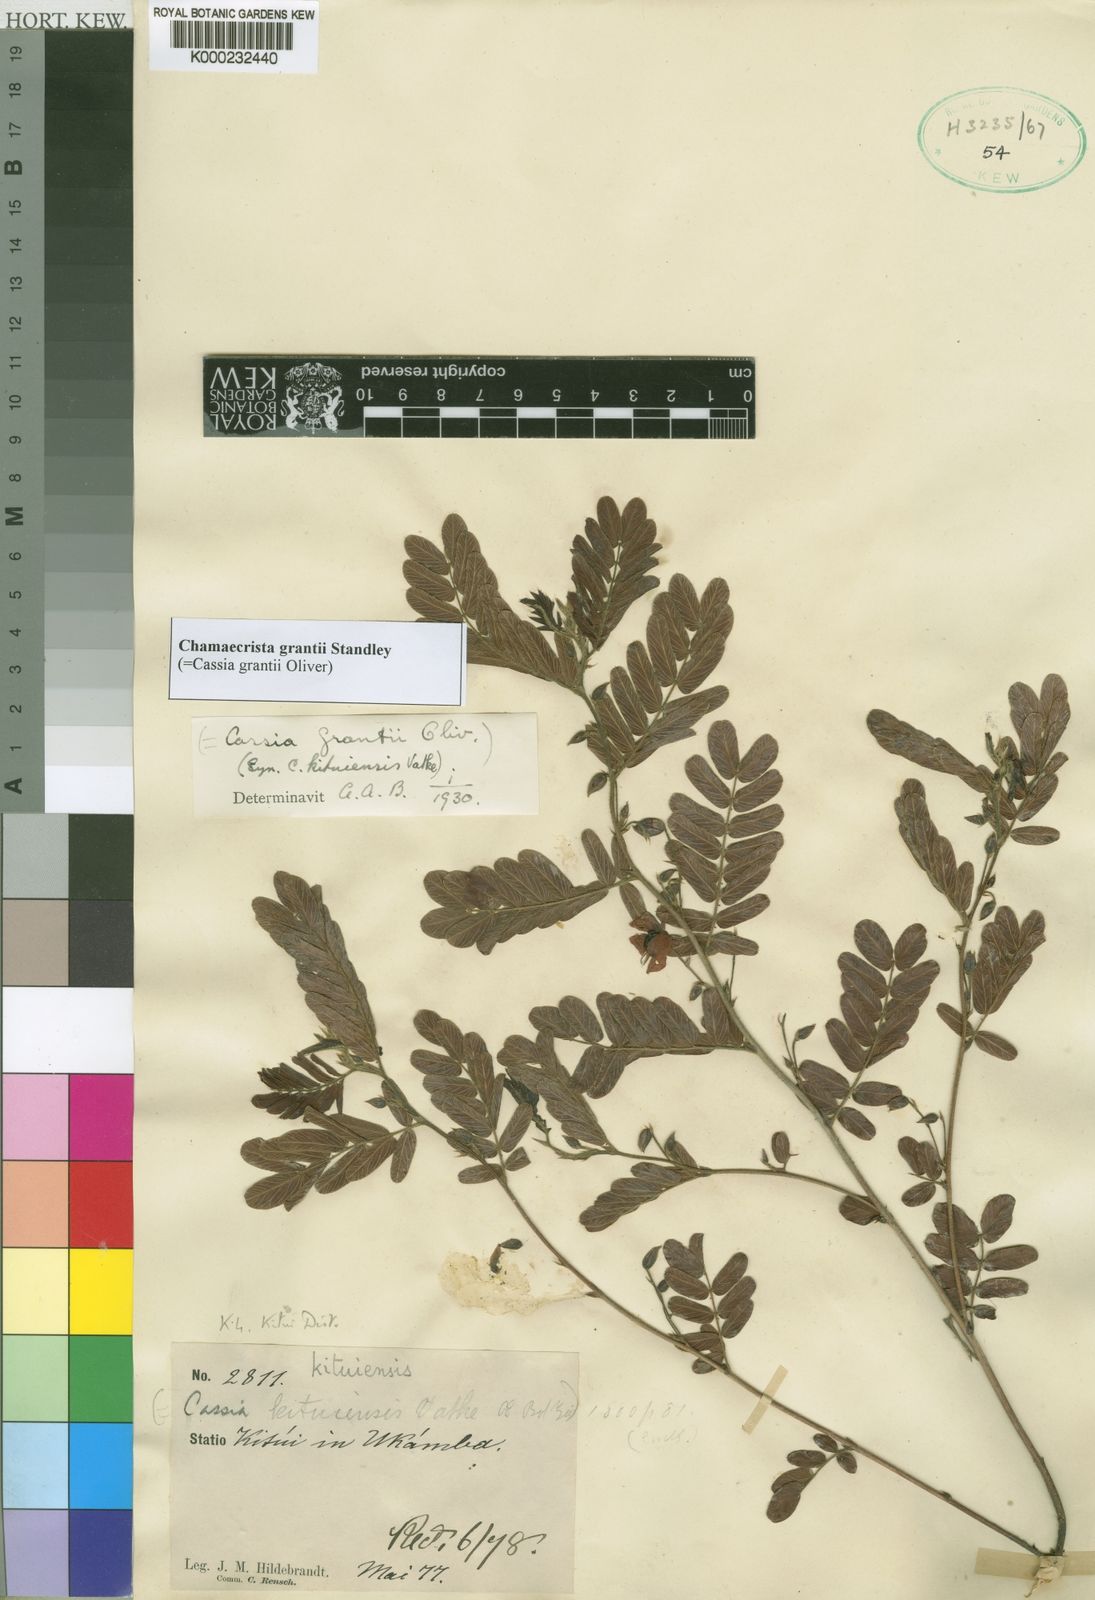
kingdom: Plantae
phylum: Tracheophyta
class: Magnoliopsida
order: Fabales
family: Fabaceae
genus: Chamaecrista
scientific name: Chamaecrista grantii
